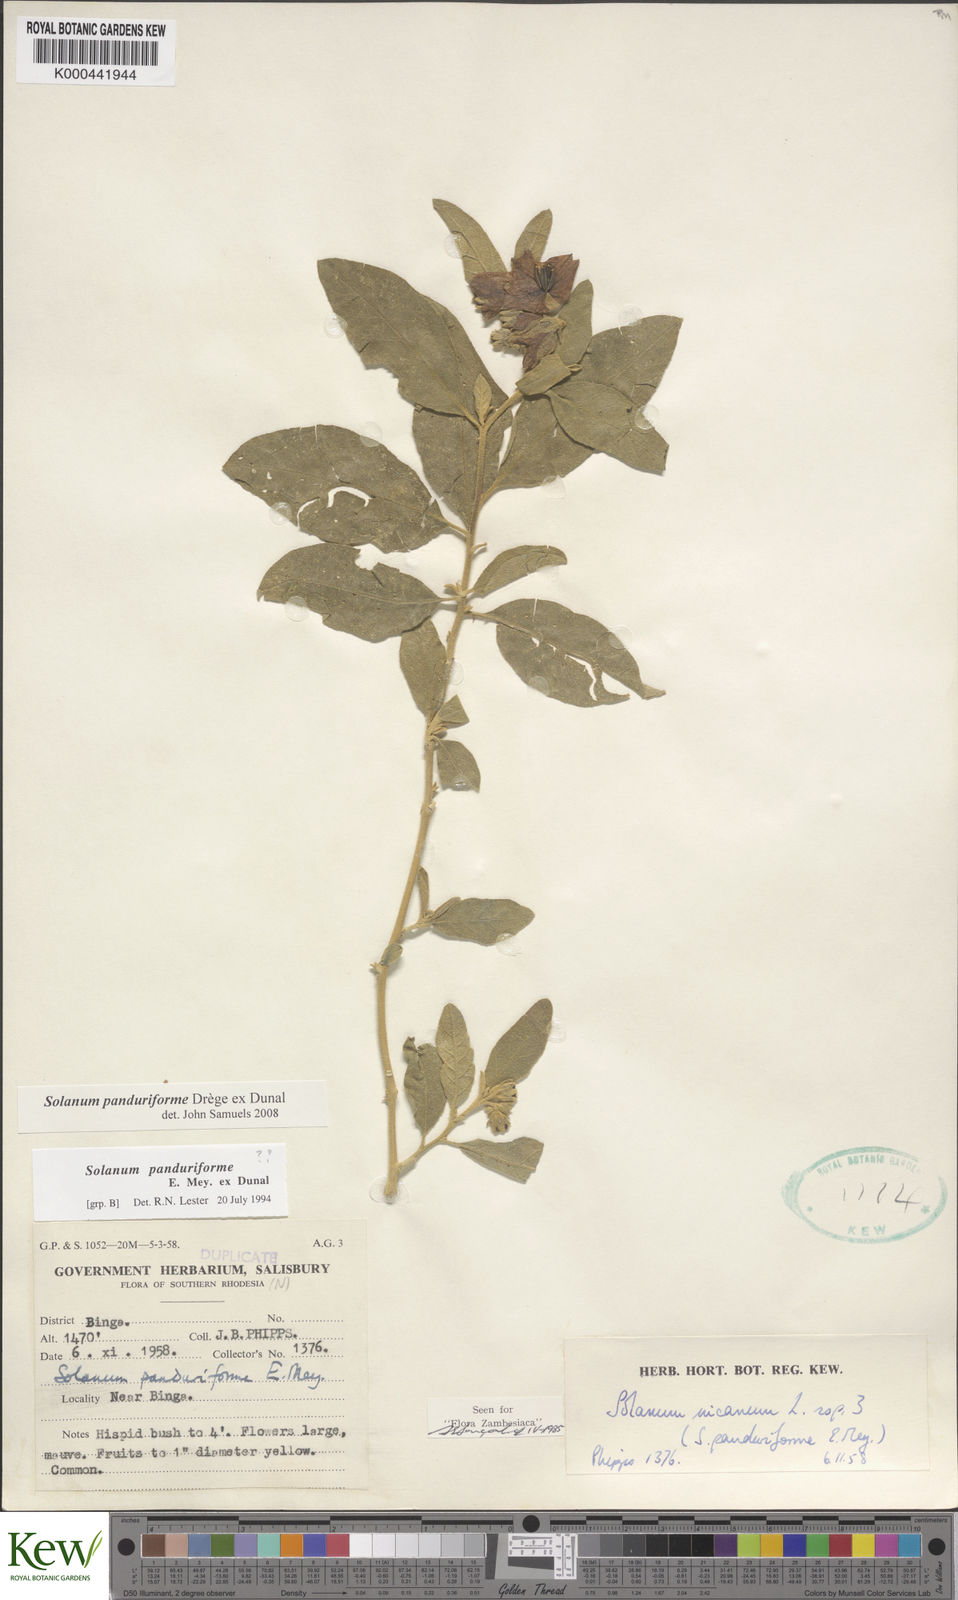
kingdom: Plantae
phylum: Tracheophyta
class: Magnoliopsida
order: Solanales
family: Solanaceae
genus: Solanum
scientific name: Solanum campylacanthum
